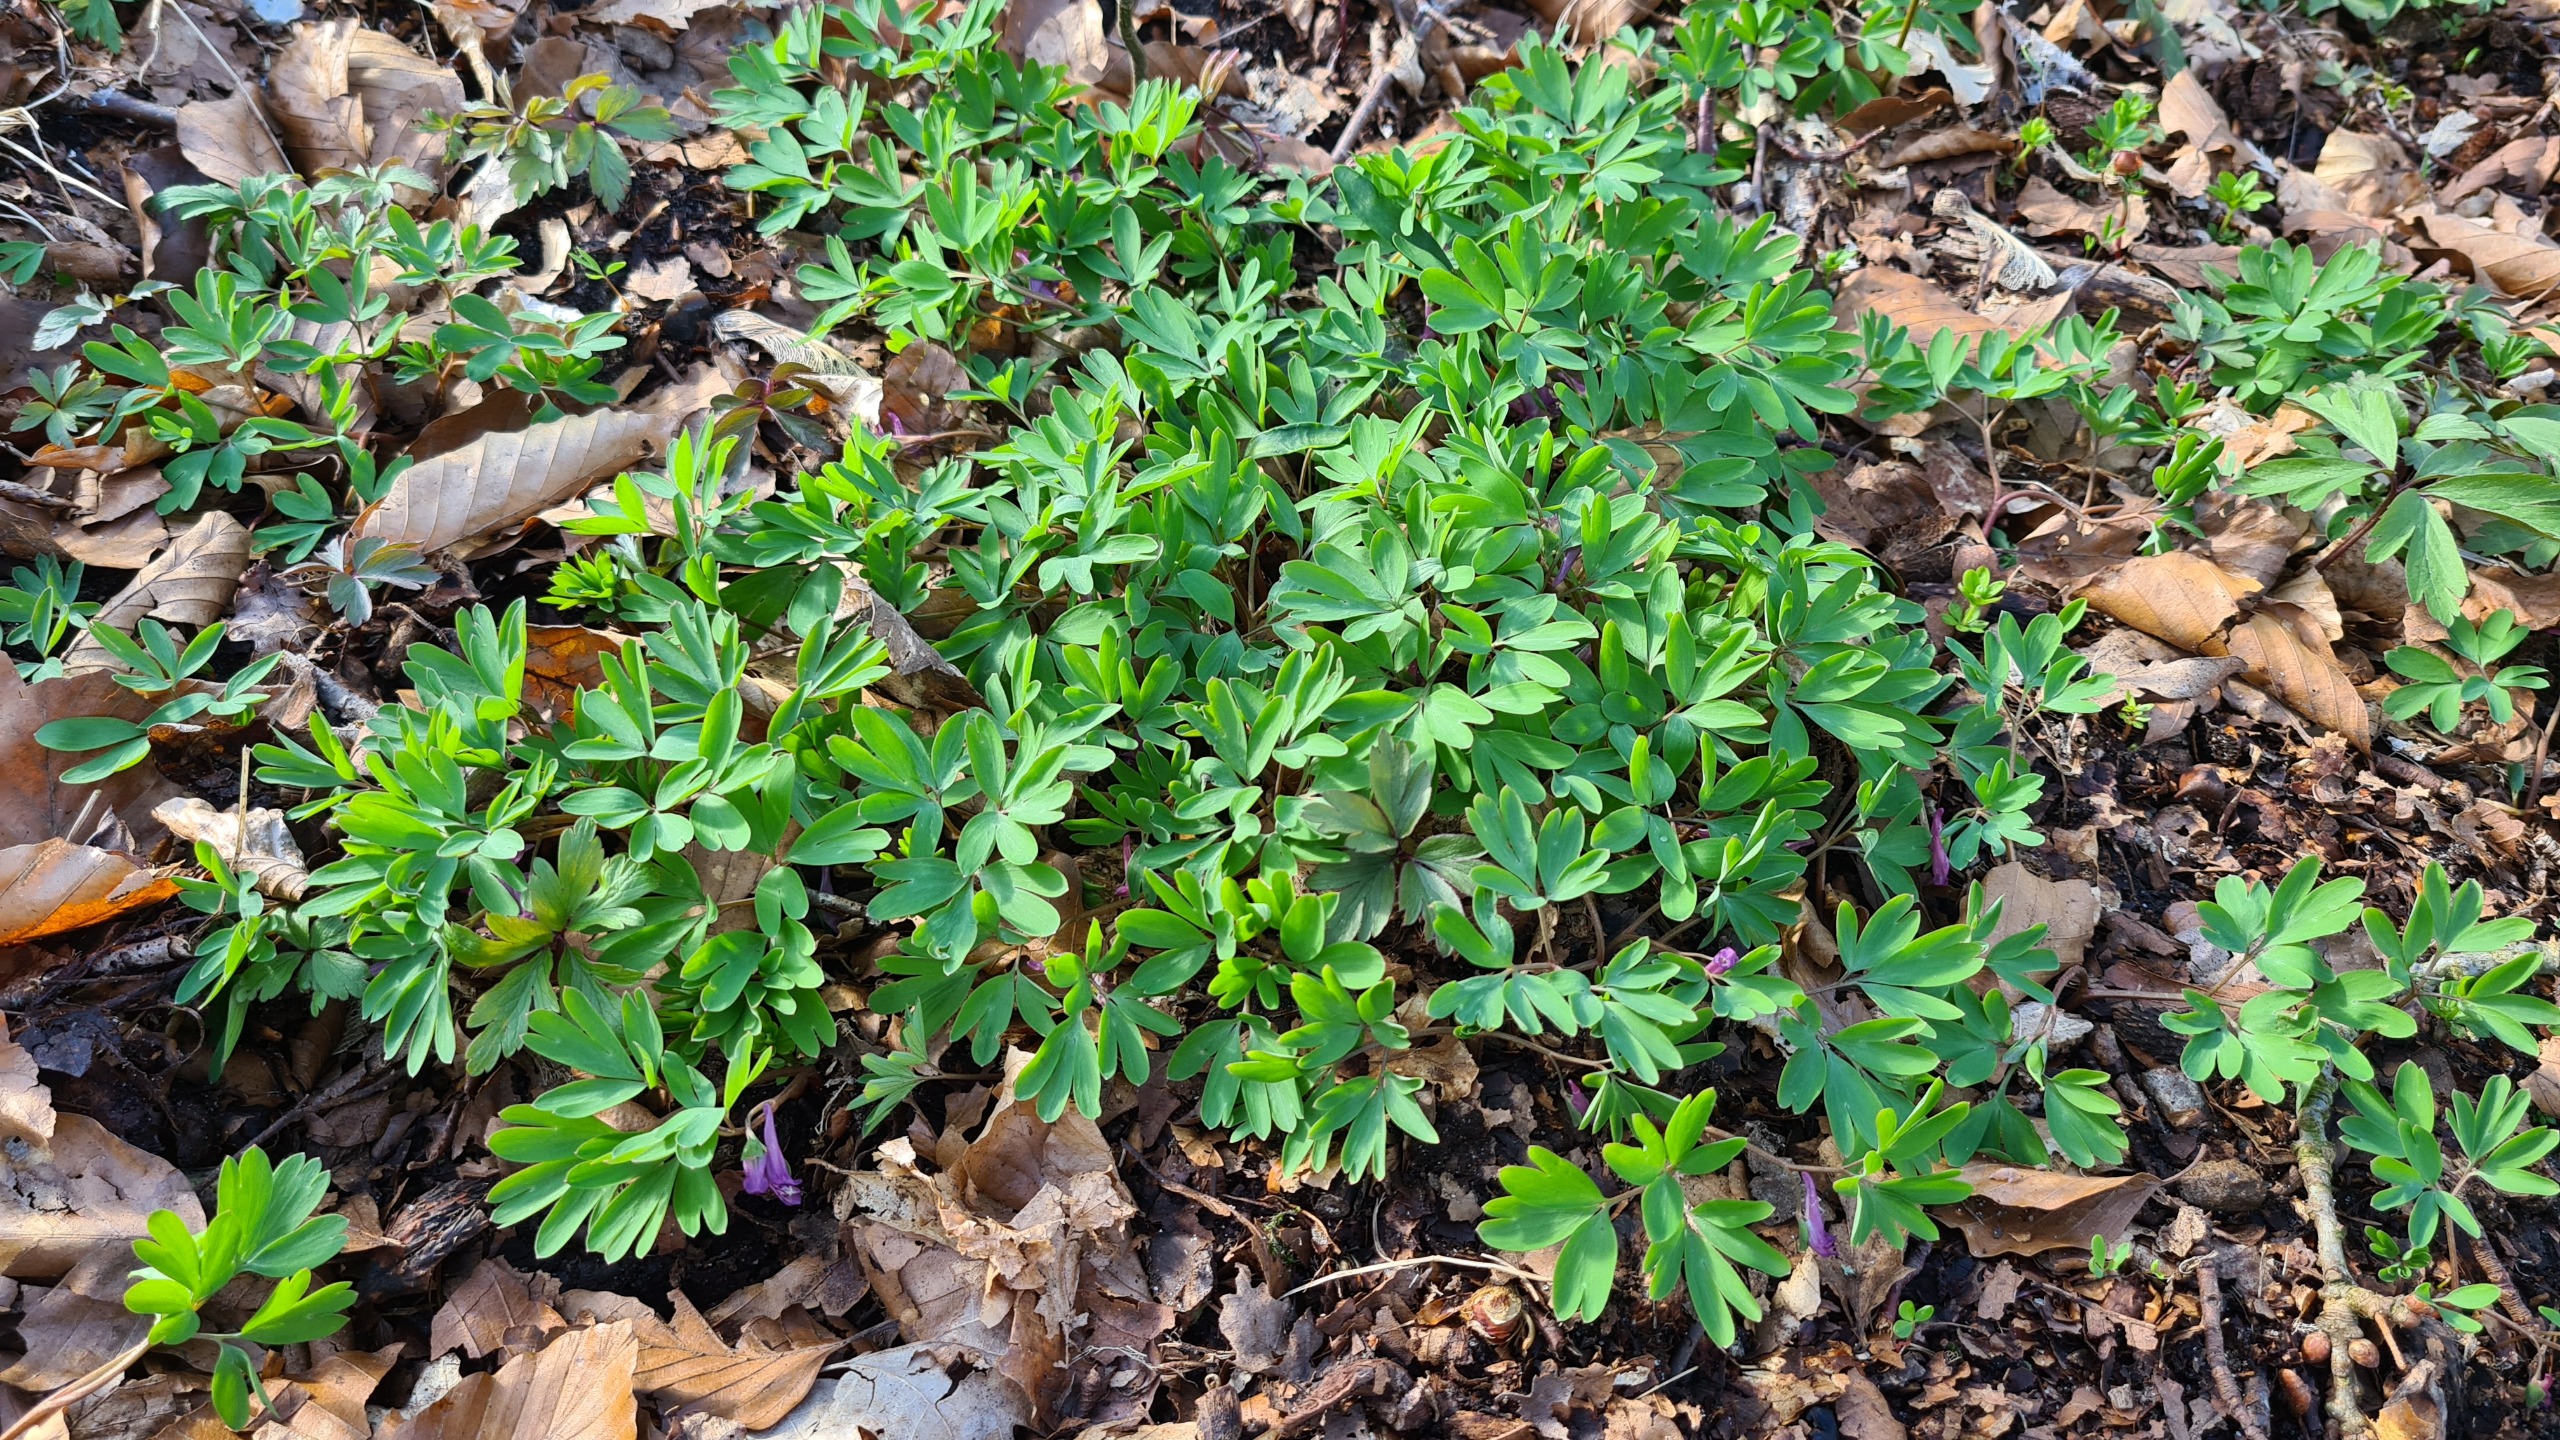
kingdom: Plantae
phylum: Tracheophyta
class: Magnoliopsida
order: Ranunculales
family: Papaveraceae
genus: Corydalis
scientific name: Corydalis intermedia
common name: Liden lærkespore
